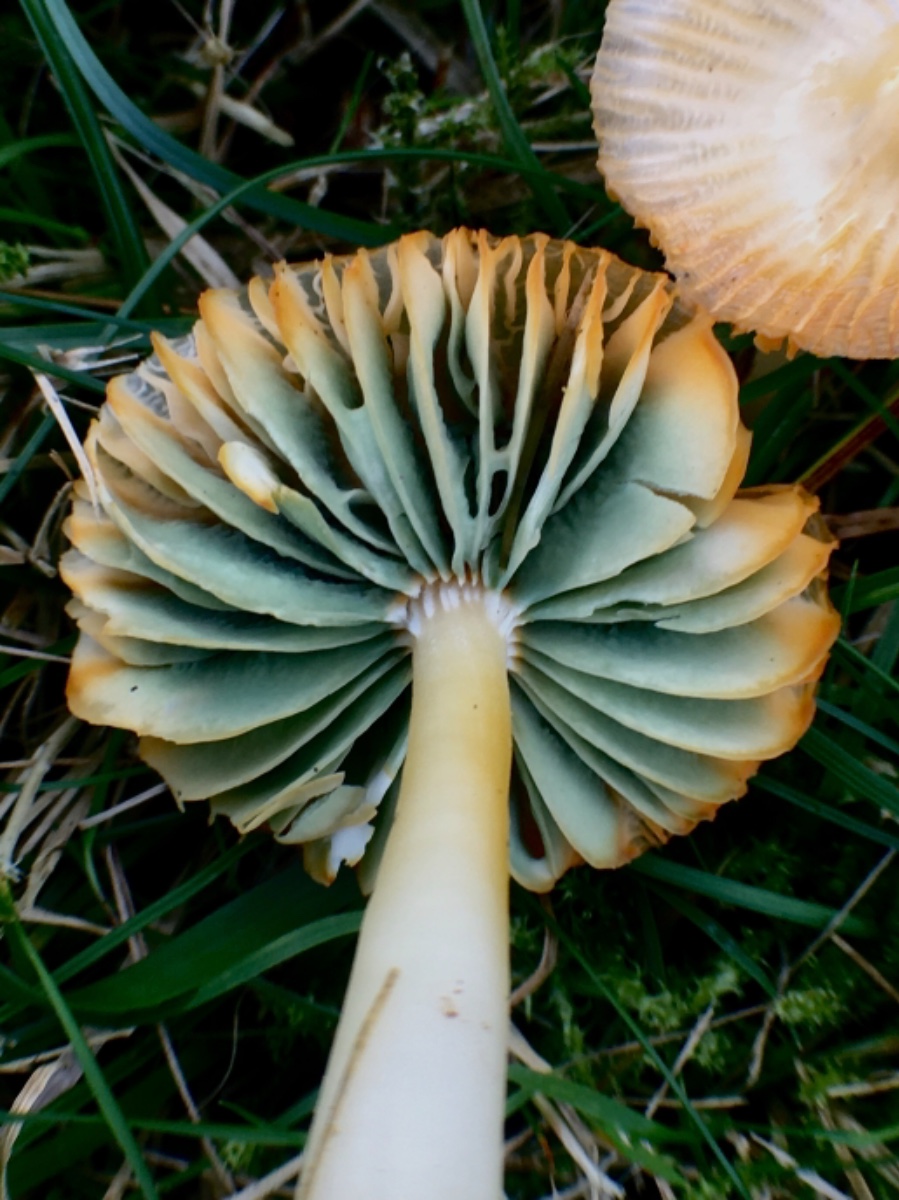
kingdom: Fungi
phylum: Basidiomycota
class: Agaricomycetes
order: Agaricales
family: Hygrophoraceae
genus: Gliophorus
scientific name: Gliophorus psittacinus
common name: papegøje-vokshat
